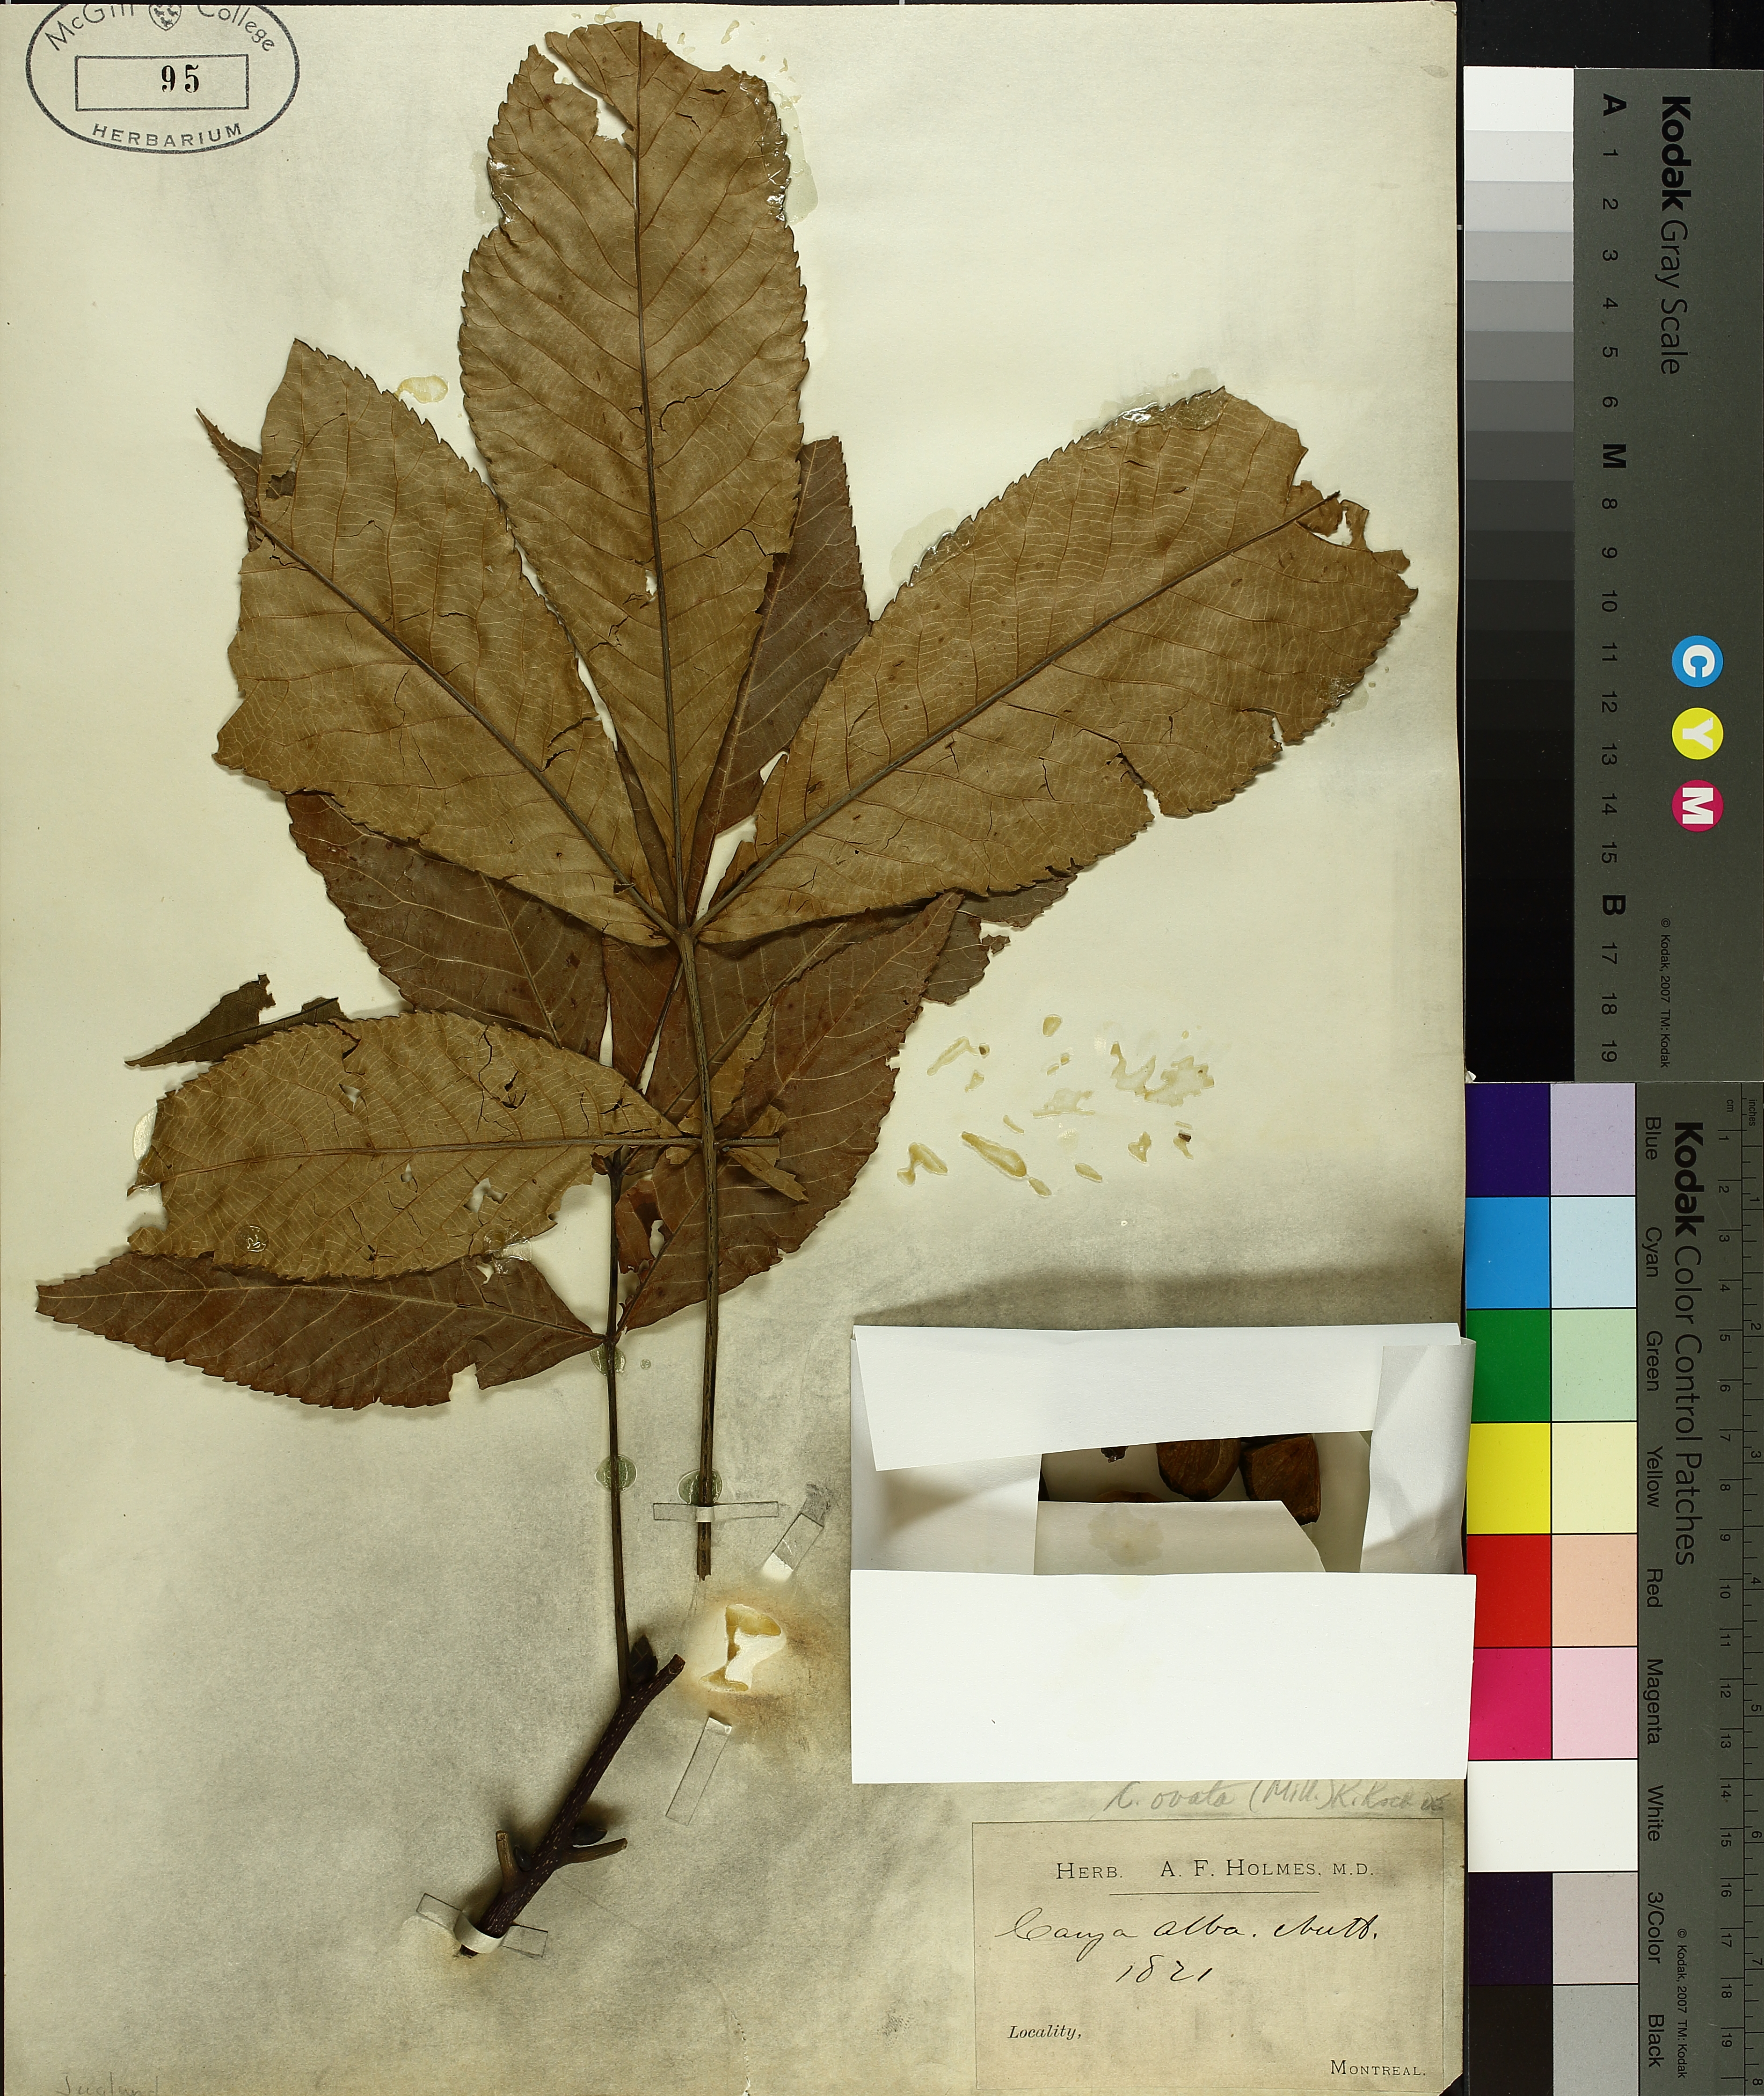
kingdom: Plantae
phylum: Tracheophyta
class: Magnoliopsida
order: Fagales
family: Juglandaceae
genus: Carya
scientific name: Carya ovata
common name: Shagbark hickory
